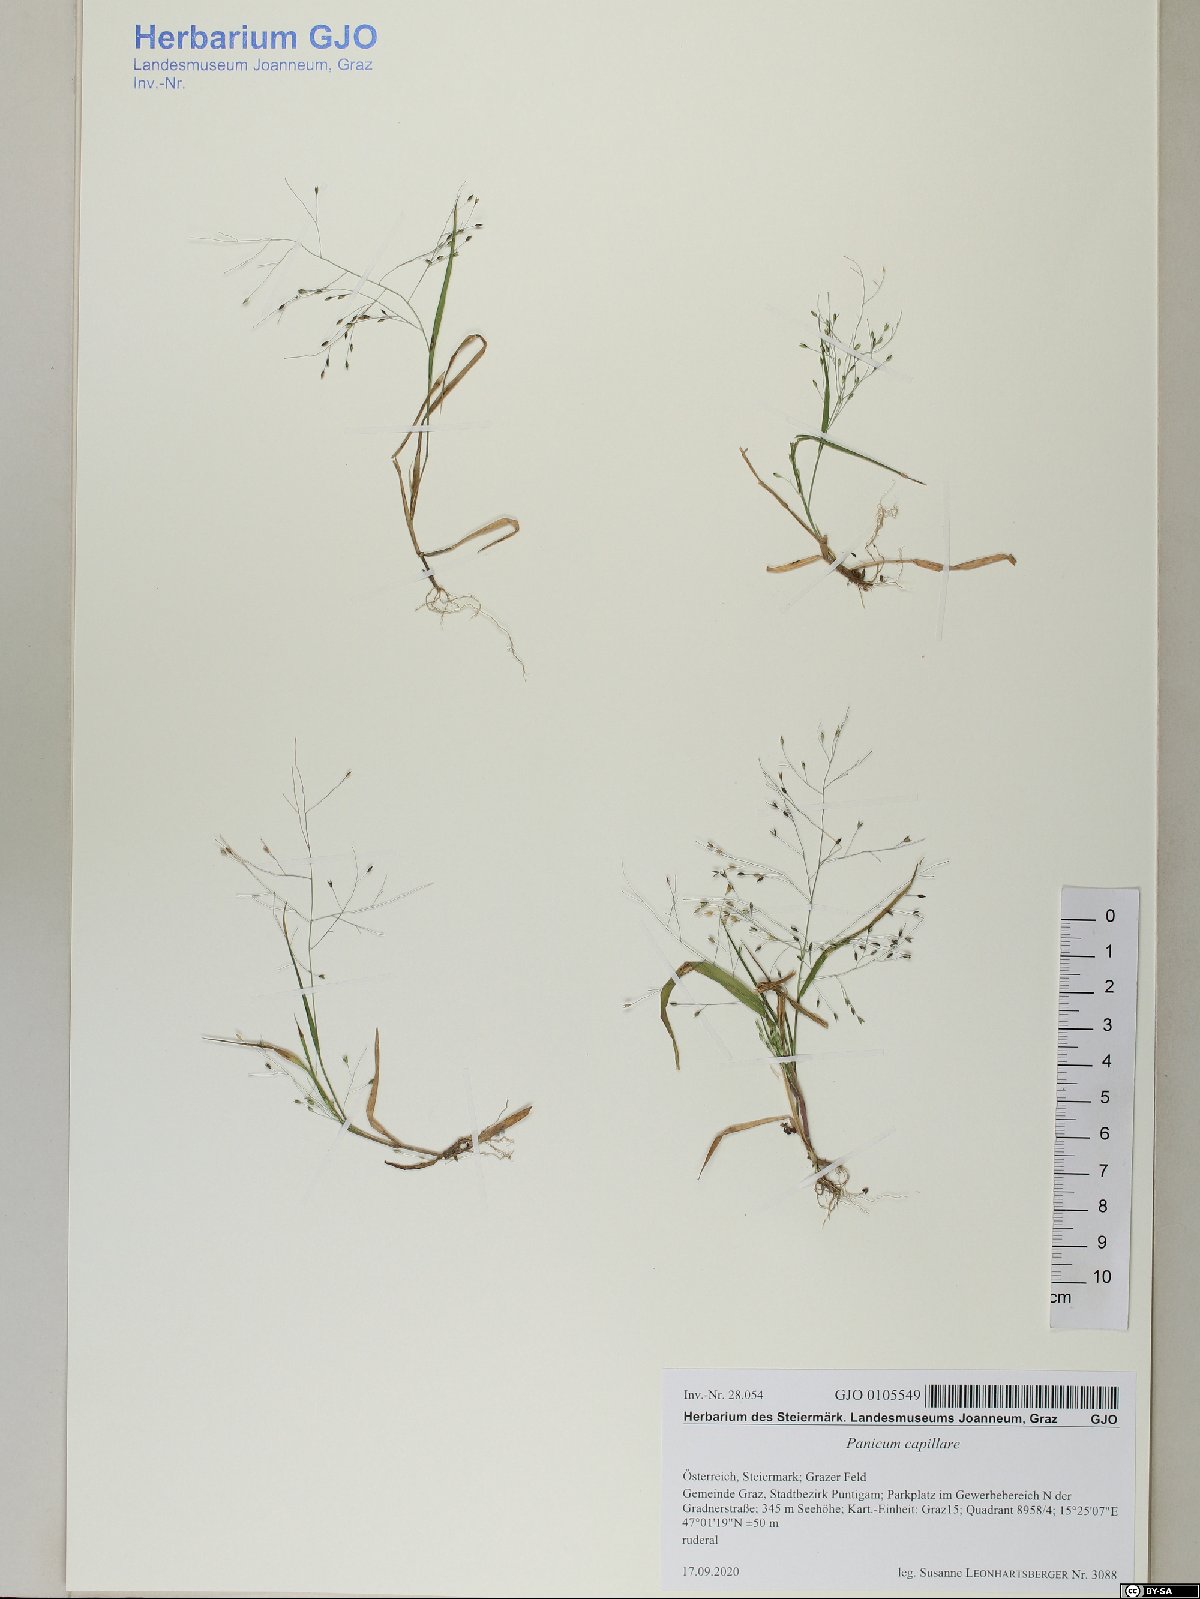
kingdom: Plantae
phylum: Tracheophyta
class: Liliopsida
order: Poales
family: Poaceae
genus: Panicum
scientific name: Panicum capillare
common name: Witch-grass
